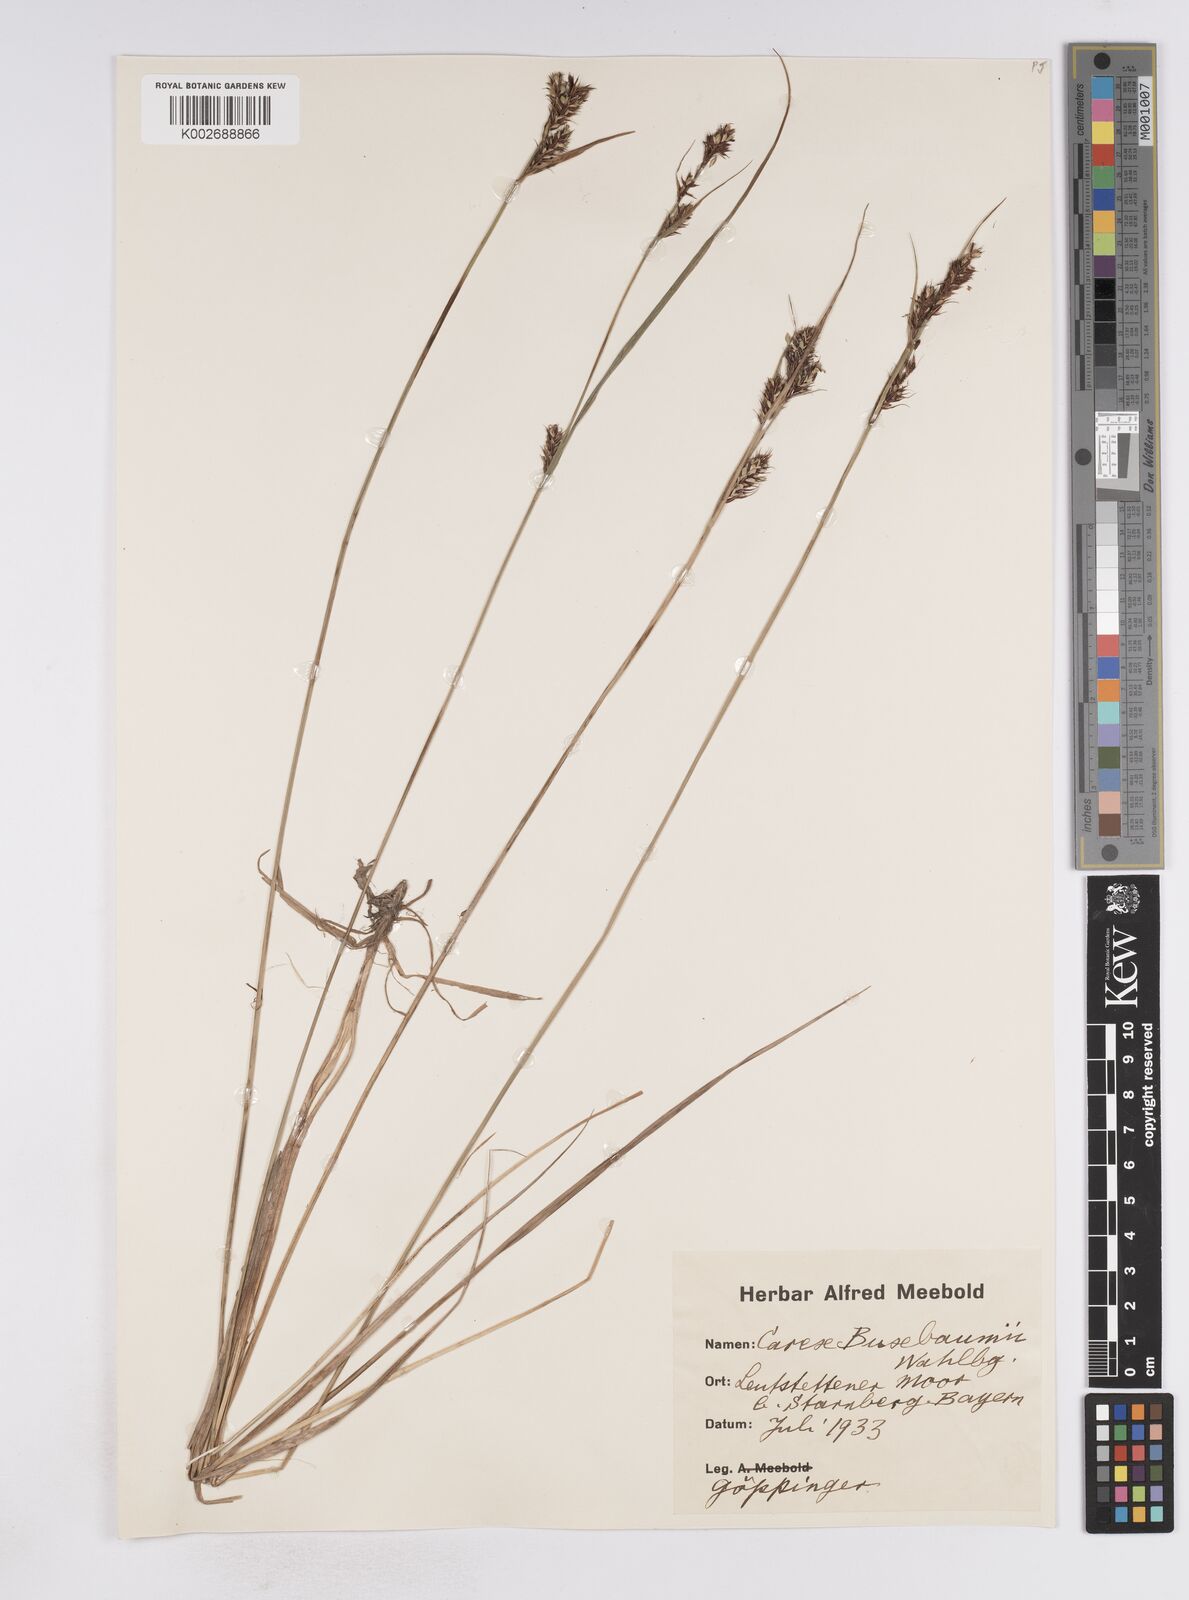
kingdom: Plantae
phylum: Tracheophyta
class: Liliopsida
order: Poales
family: Cyperaceae
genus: Carex
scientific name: Carex buxbaumii
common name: Club sedge
